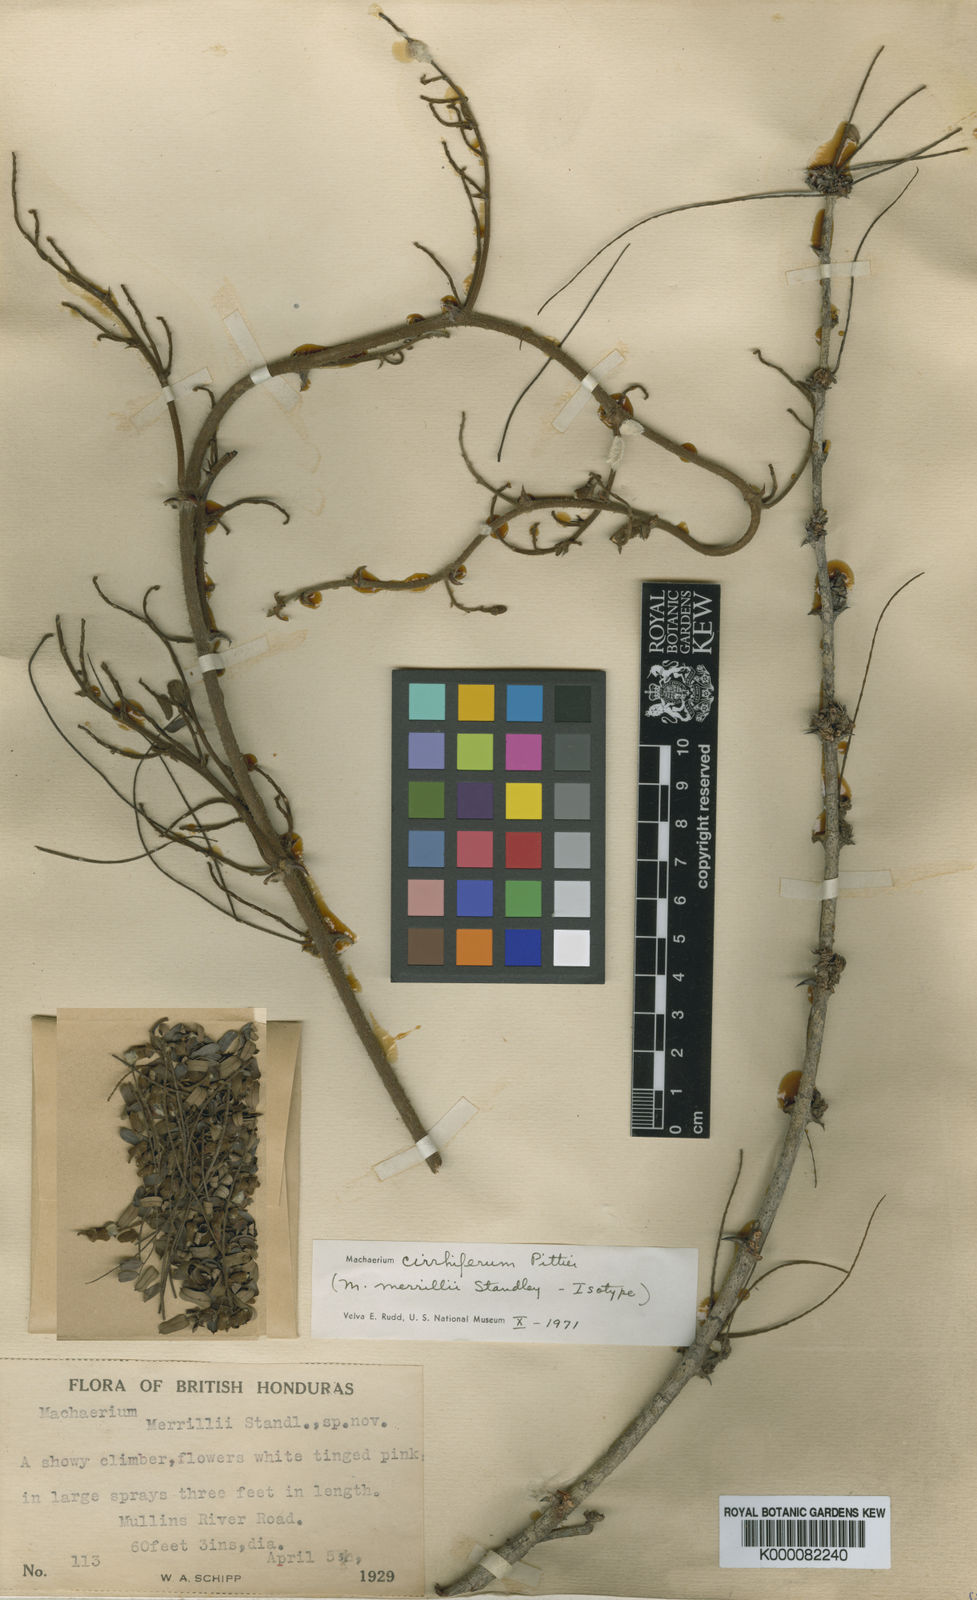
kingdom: Plantae
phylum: Tracheophyta
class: Magnoliopsida
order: Fabales
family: Fabaceae
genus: Machaerium
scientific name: Machaerium
